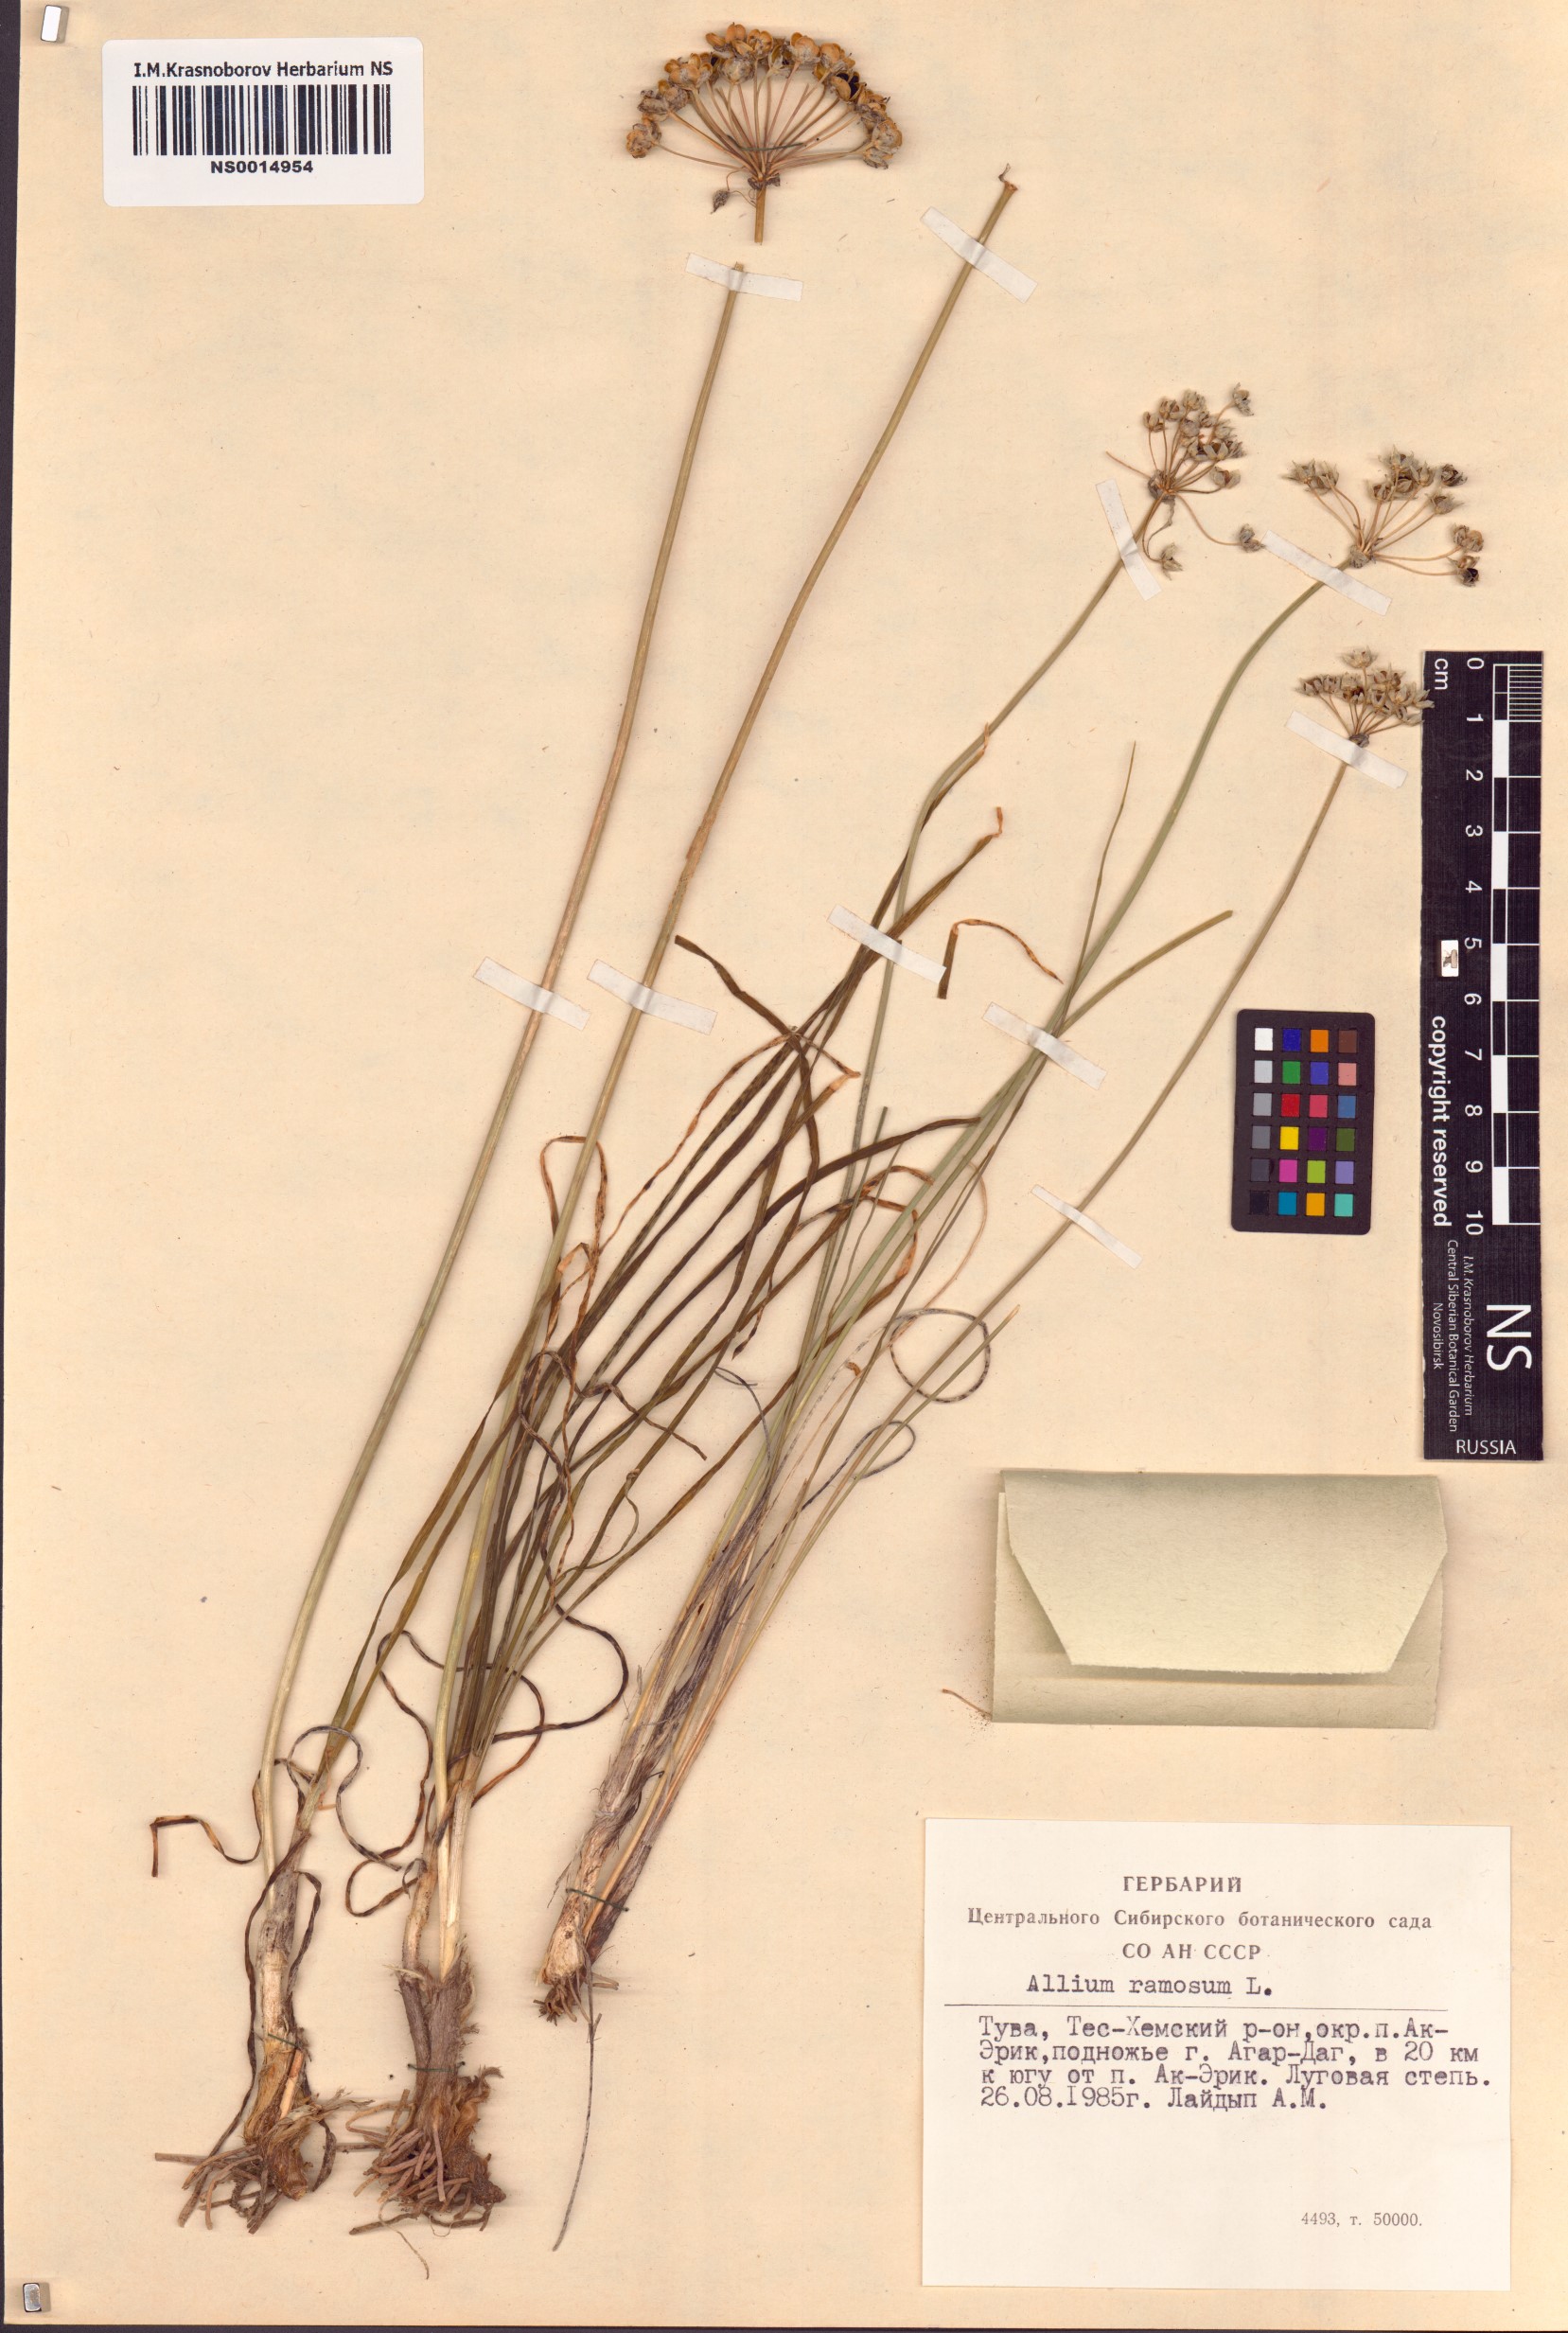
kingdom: Plantae
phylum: Tracheophyta
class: Liliopsida
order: Asparagales
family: Amaryllidaceae
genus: Allium
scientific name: Allium ramosum
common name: Fragrant garlic
